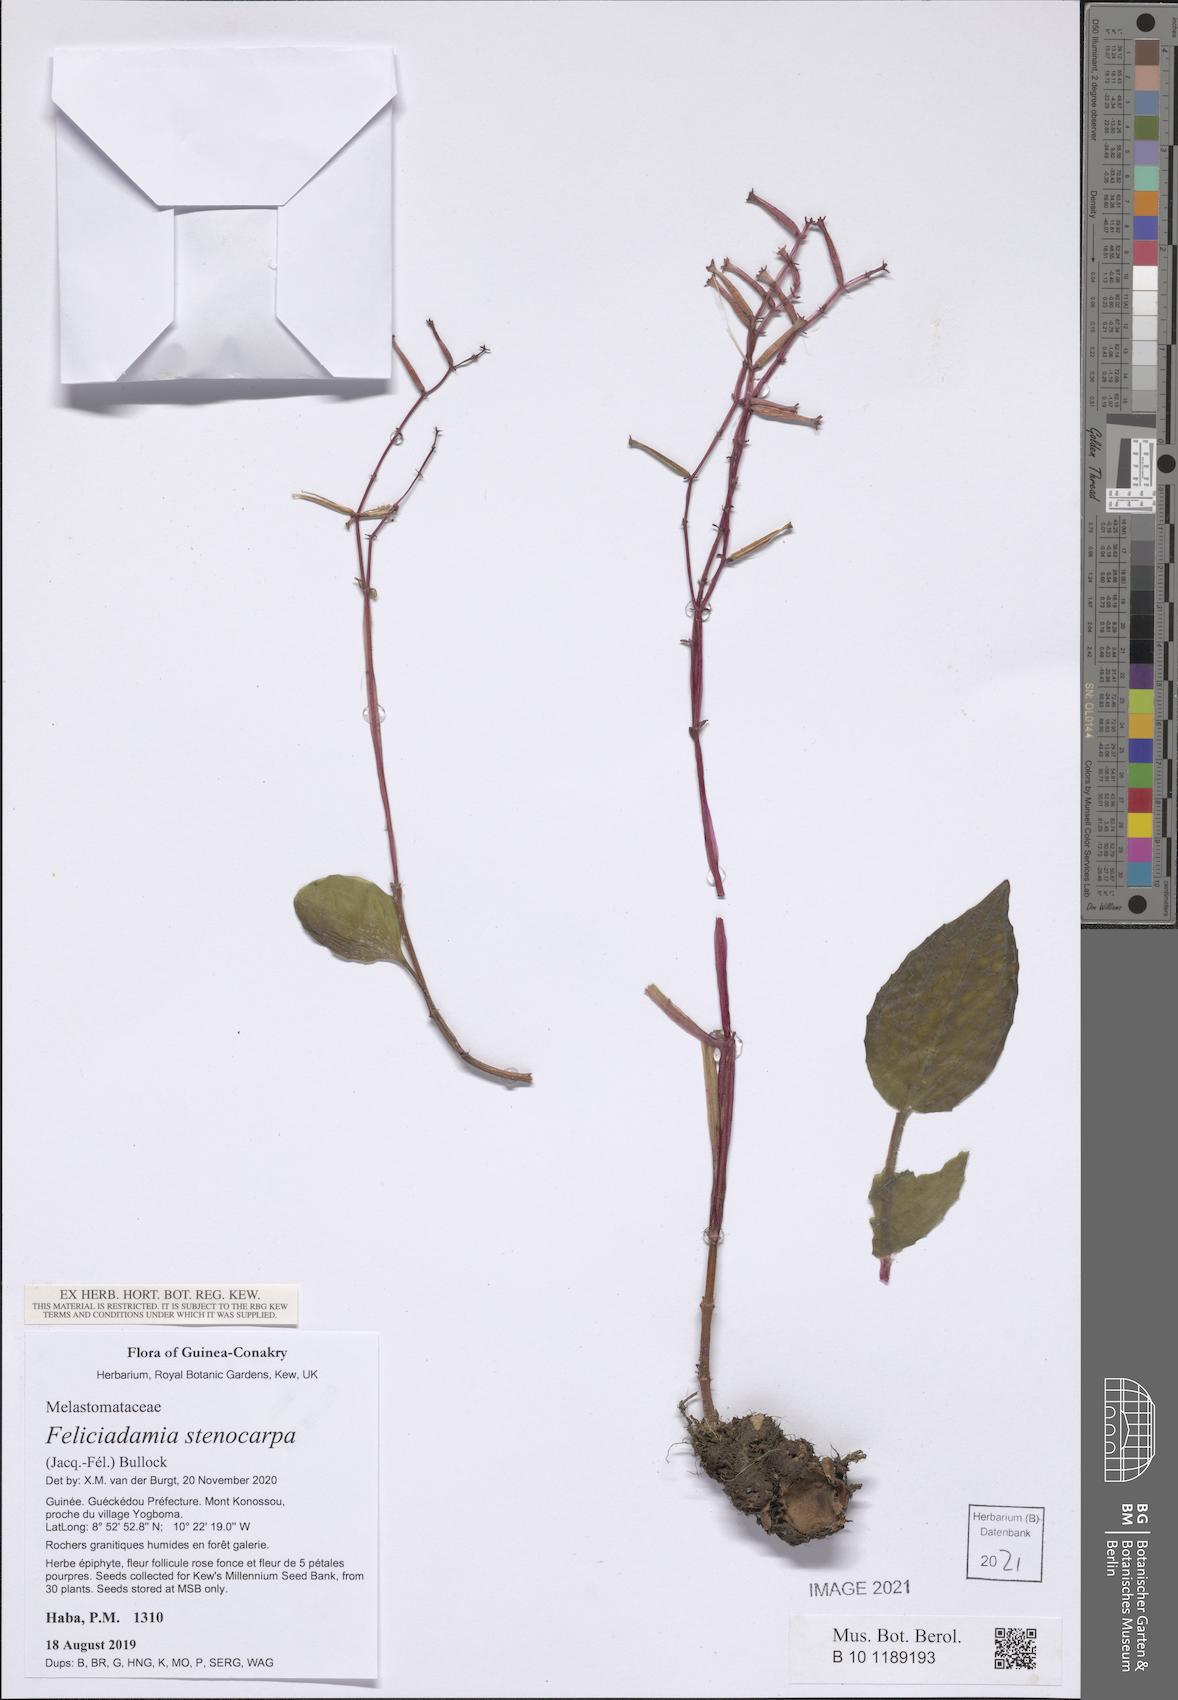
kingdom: Plantae
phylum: Tracheophyta
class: Magnoliopsida
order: Myrtales
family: Melastomataceae
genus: Feliciadamia
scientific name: Feliciadamia stenocarpa
